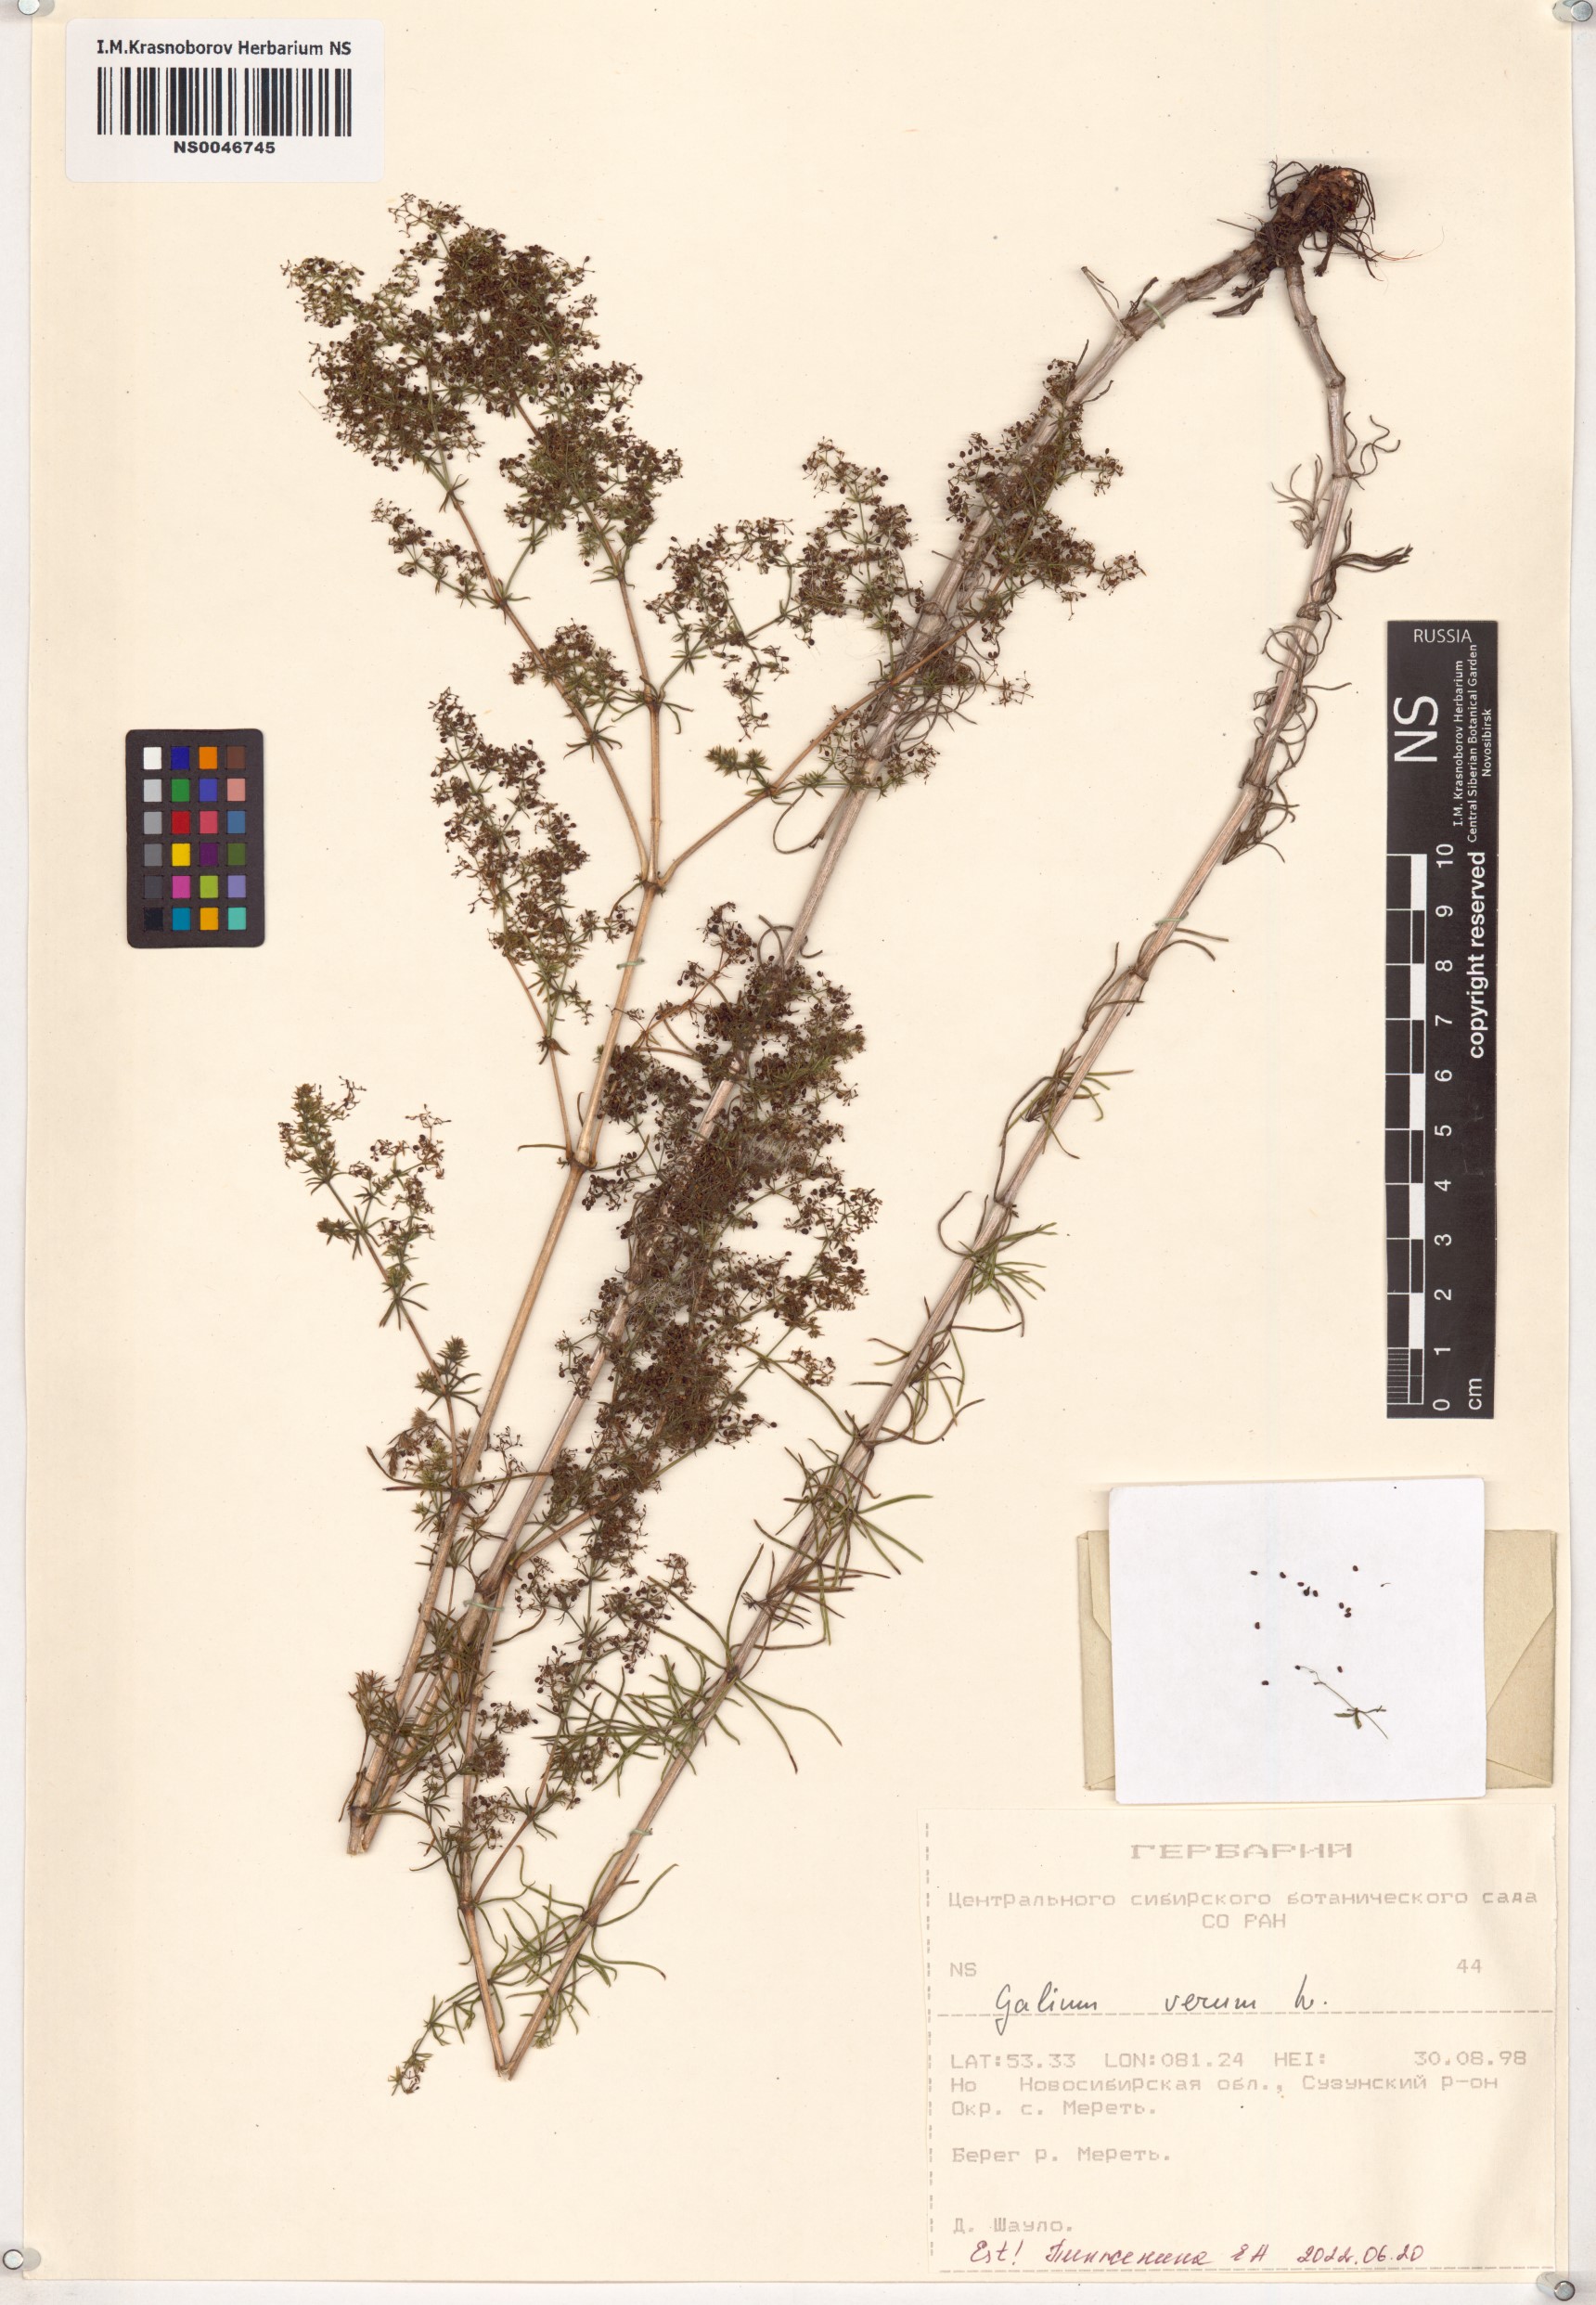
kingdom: Plantae
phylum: Tracheophyta
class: Magnoliopsida
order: Gentianales
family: Rubiaceae
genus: Galium
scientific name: Galium verum
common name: Lady's bedstraw
